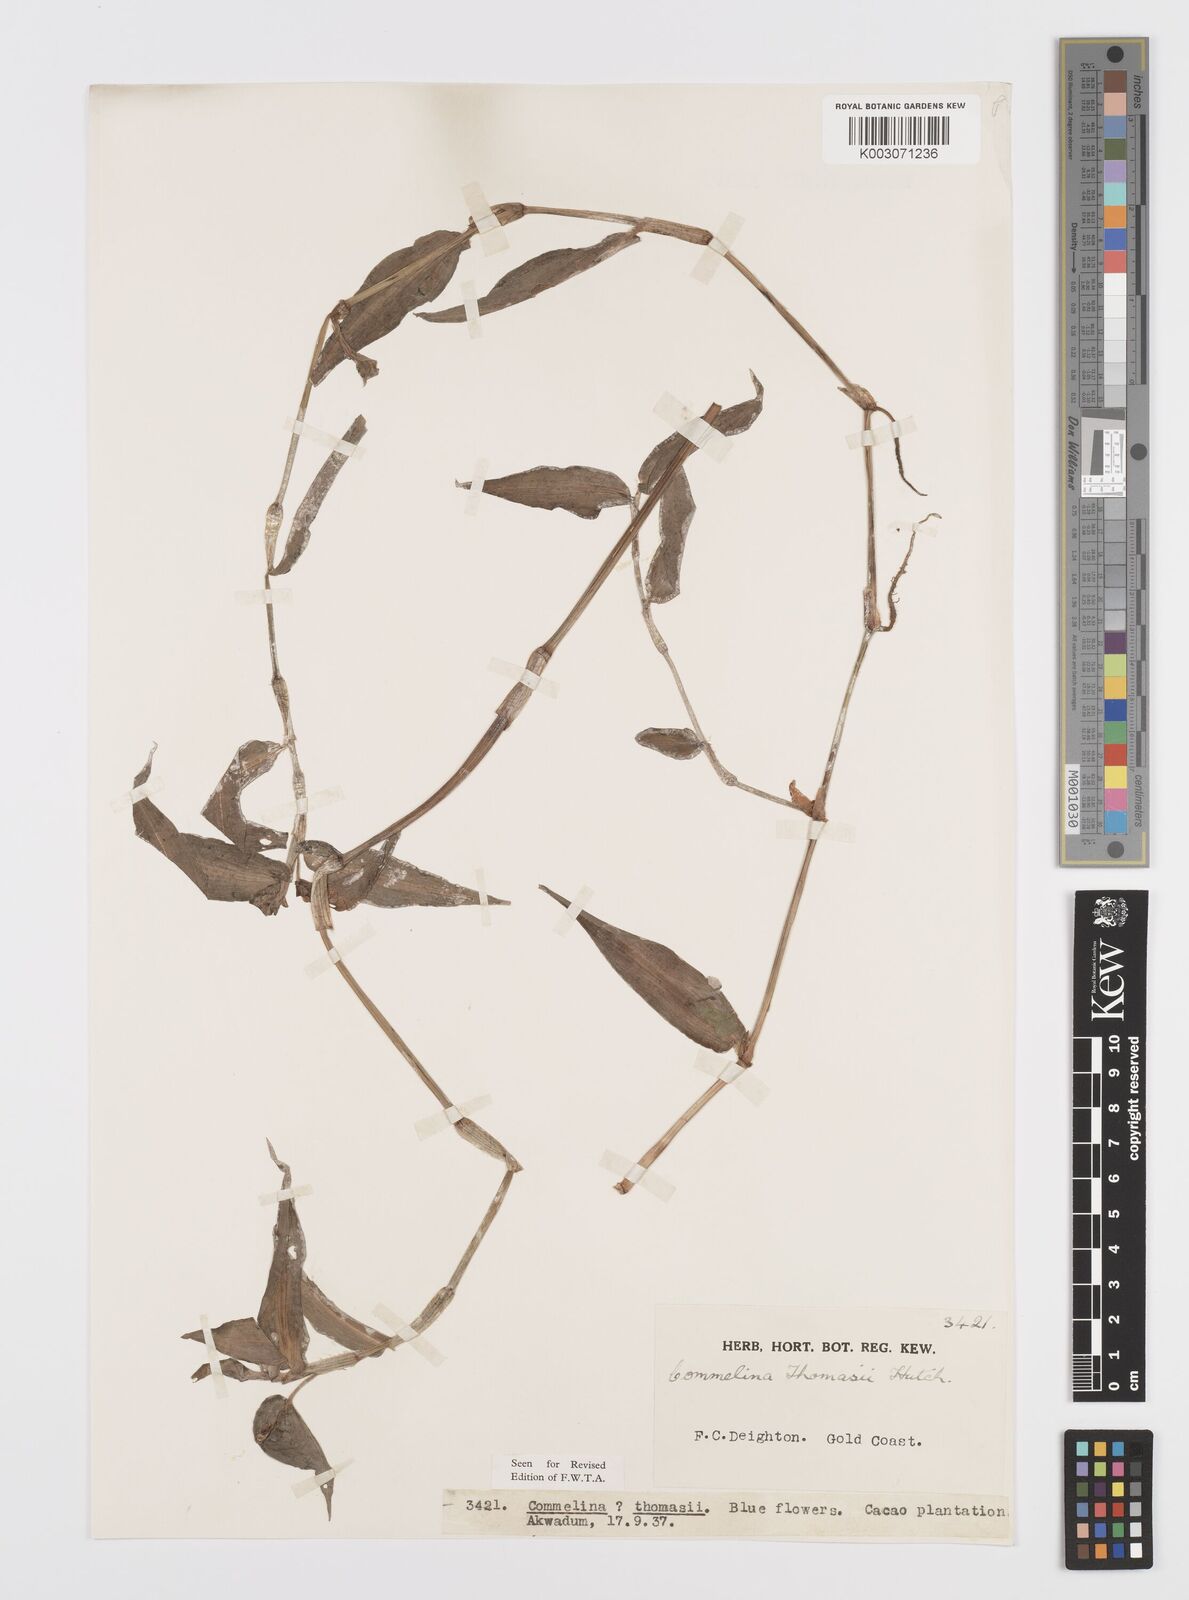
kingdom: Plantae
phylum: Tracheophyta
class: Liliopsida
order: Commelinales
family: Commelinaceae
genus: Commelina
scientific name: Commelina acutispatha
